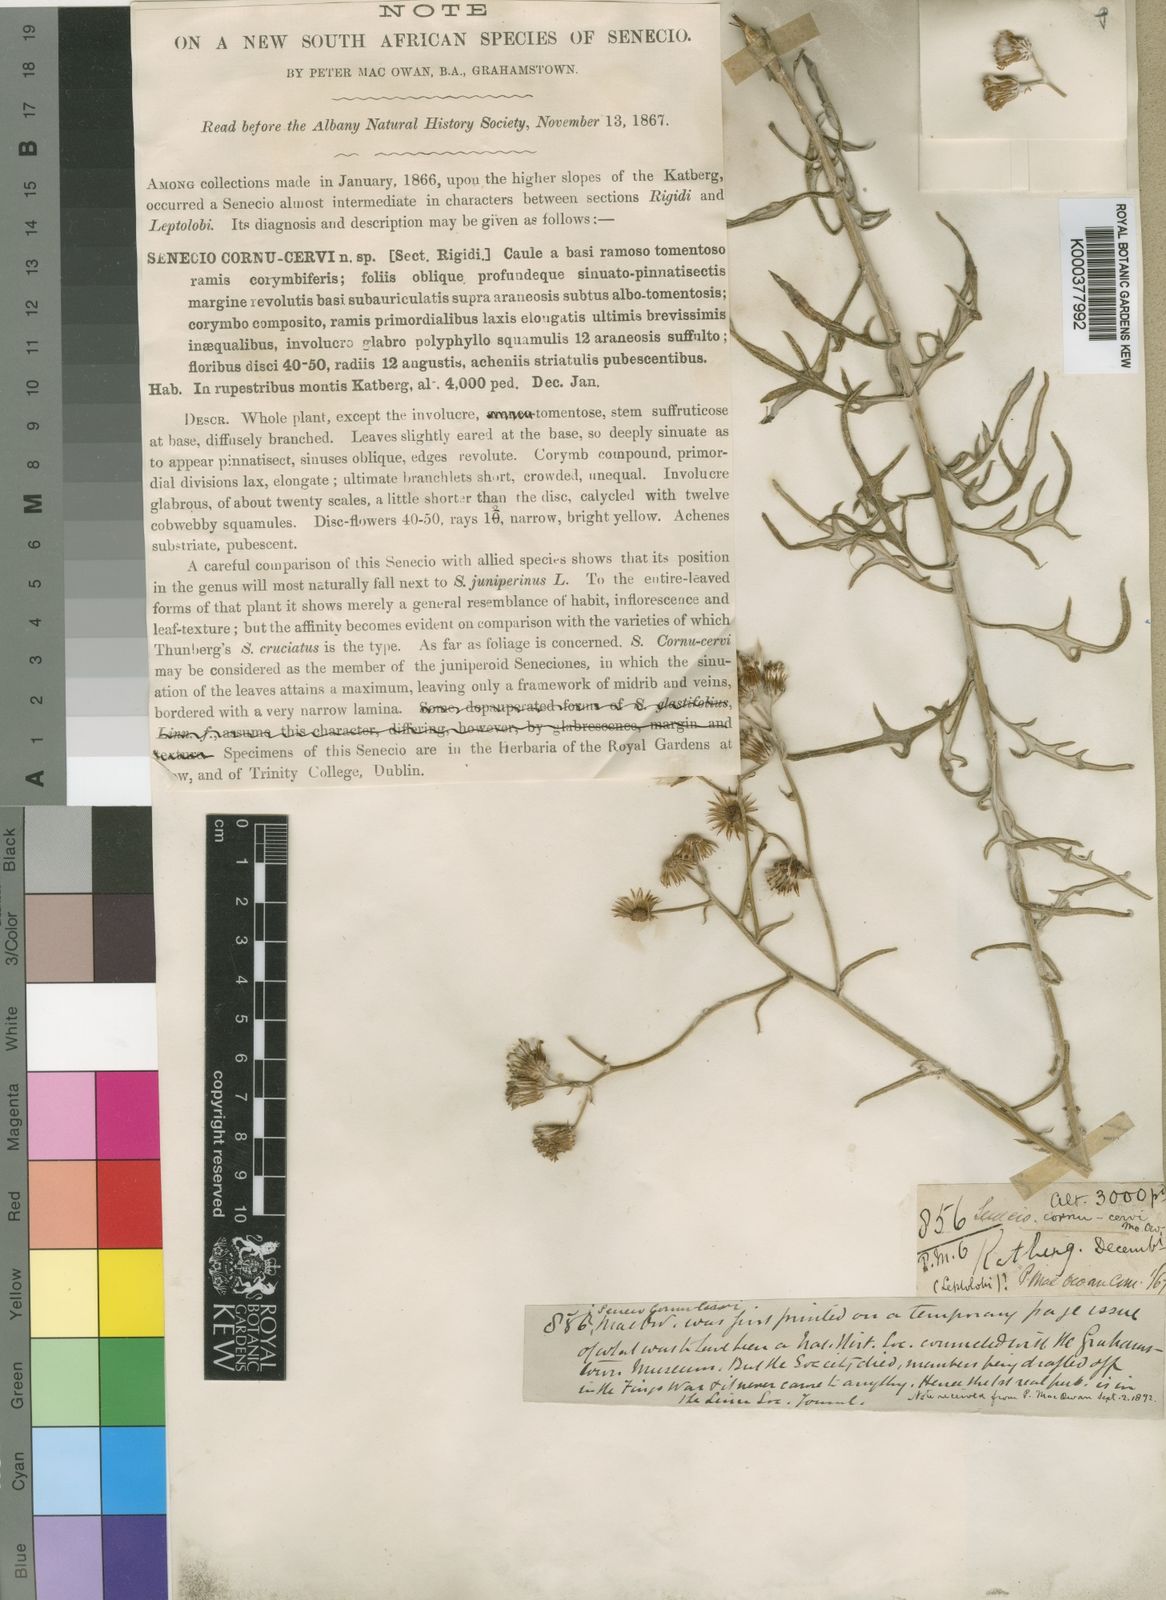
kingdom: Plantae
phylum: Tracheophyta
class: Magnoliopsida
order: Asterales
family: Asteraceae
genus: Senecio
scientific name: Senecio cornu-cervi
